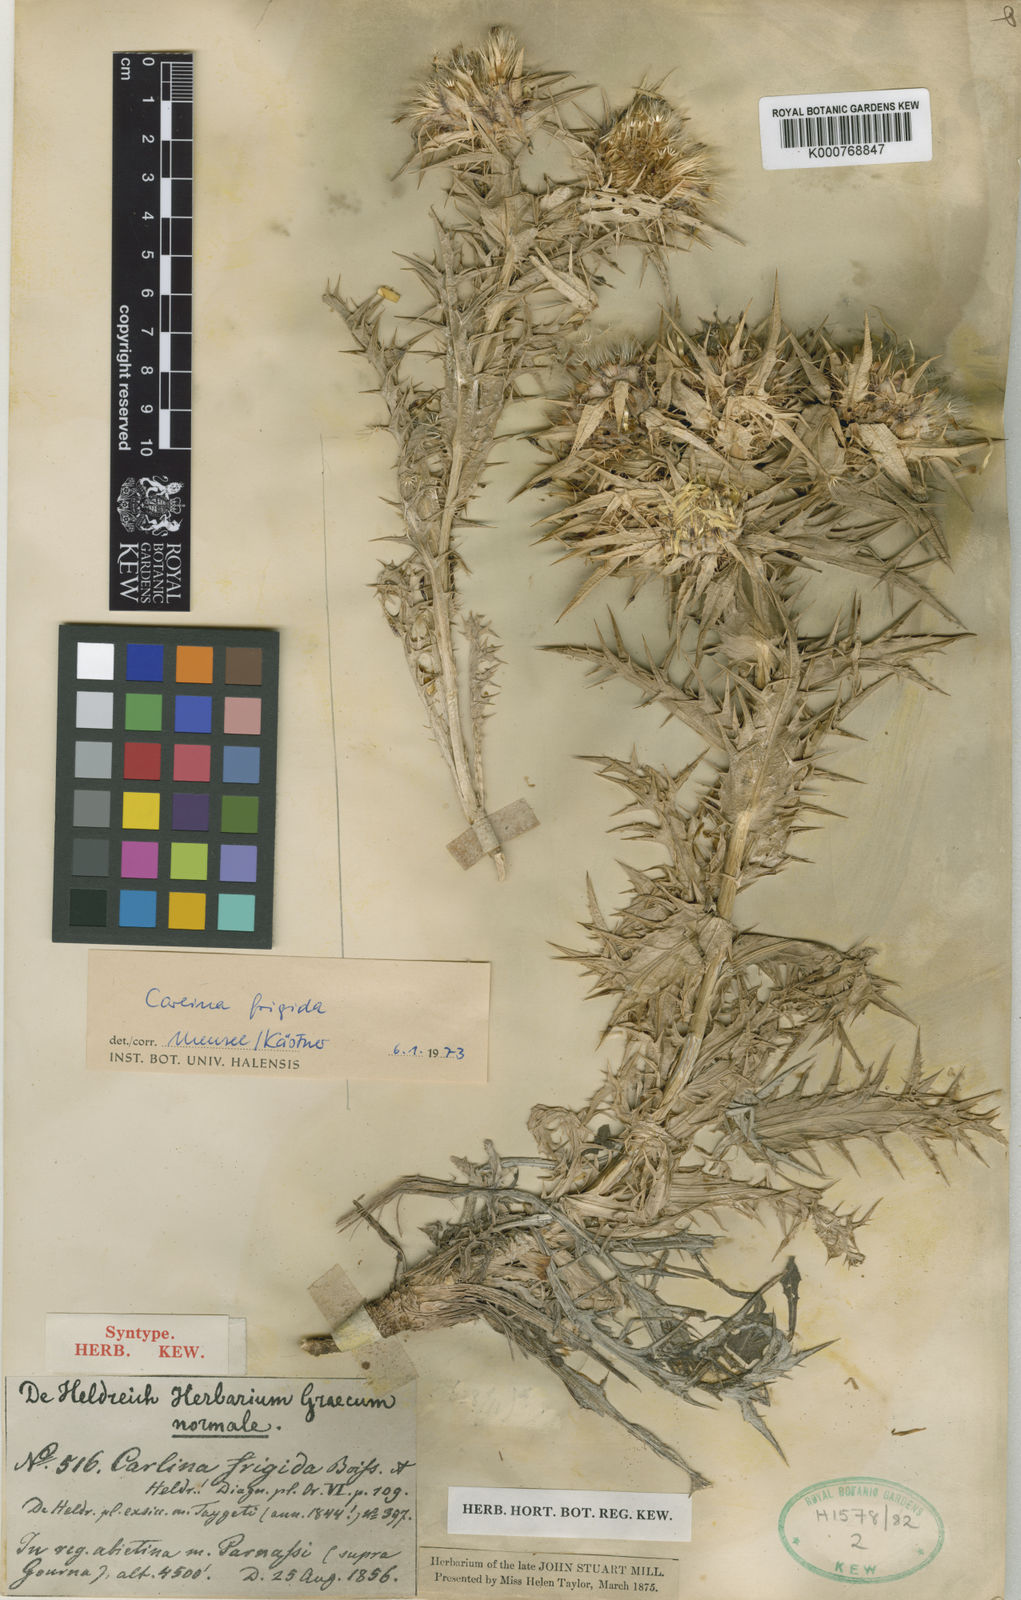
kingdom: Plantae
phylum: Tracheophyta
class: Magnoliopsida
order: Asterales
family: Asteraceae
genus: Carlina
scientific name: Carlina frigida
